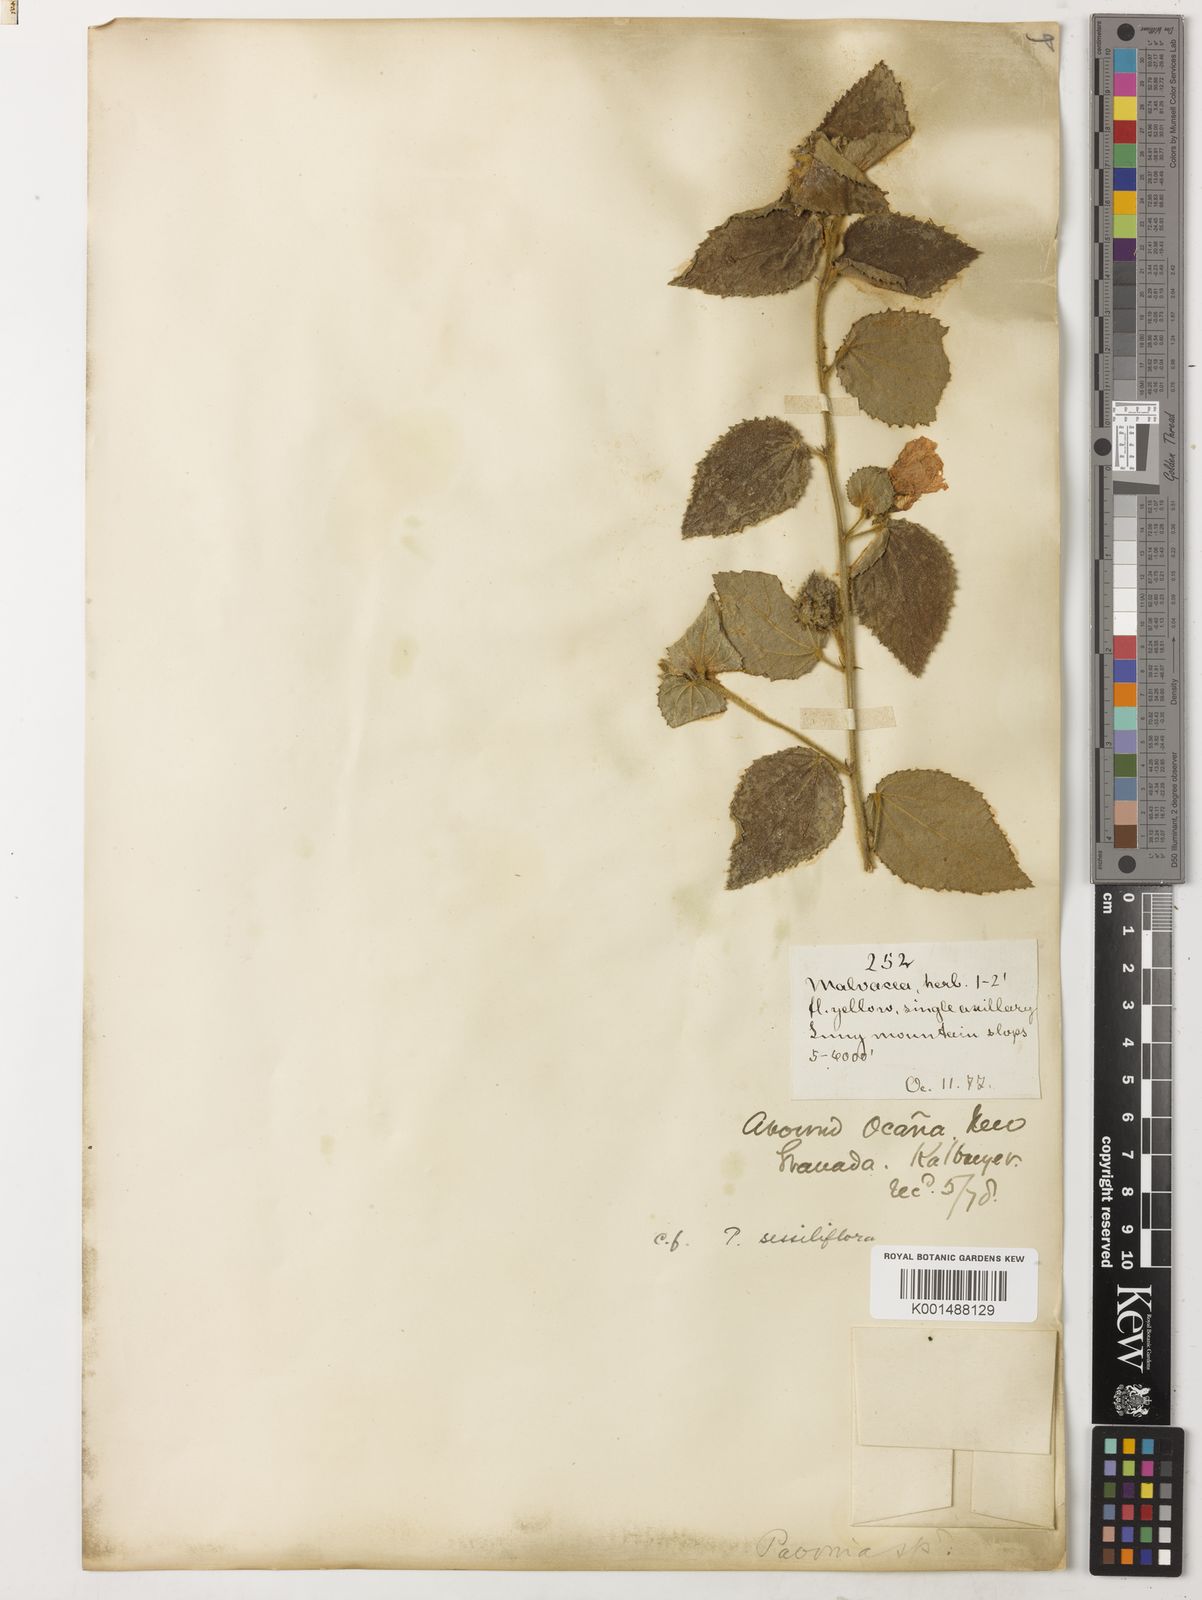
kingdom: Plantae
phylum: Tracheophyta
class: Magnoliopsida
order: Malvales
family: Malvaceae
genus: Peltaea
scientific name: Peltaea sessiliflora
